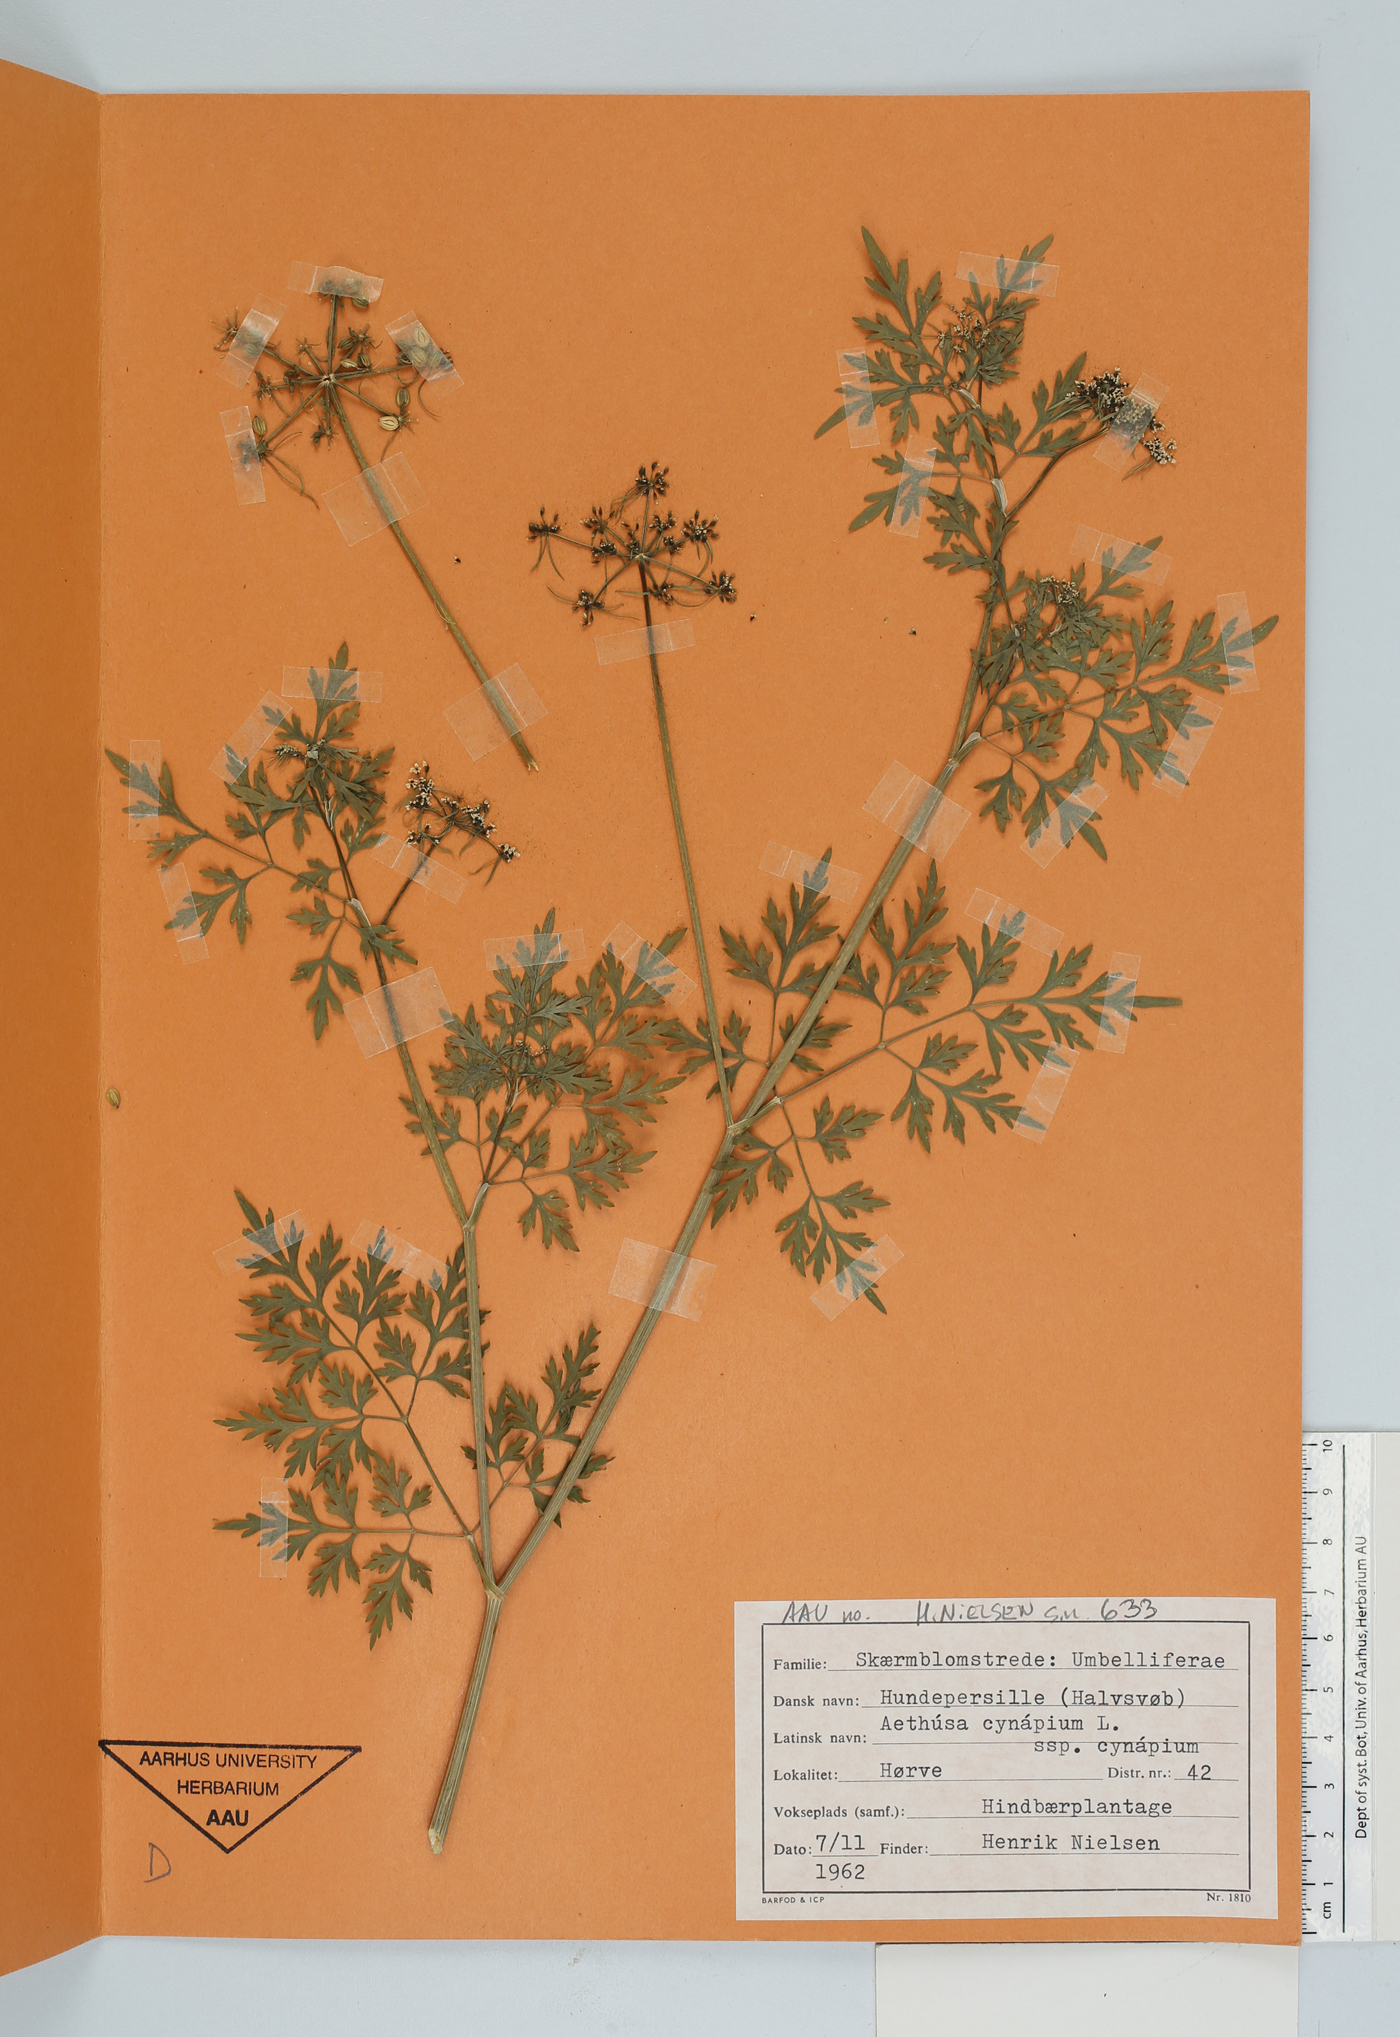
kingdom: Plantae
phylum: Tracheophyta
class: Magnoliopsida
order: Apiales
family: Apiaceae
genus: Aethusa
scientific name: Aethusa cynapium
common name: Fool's parsley
